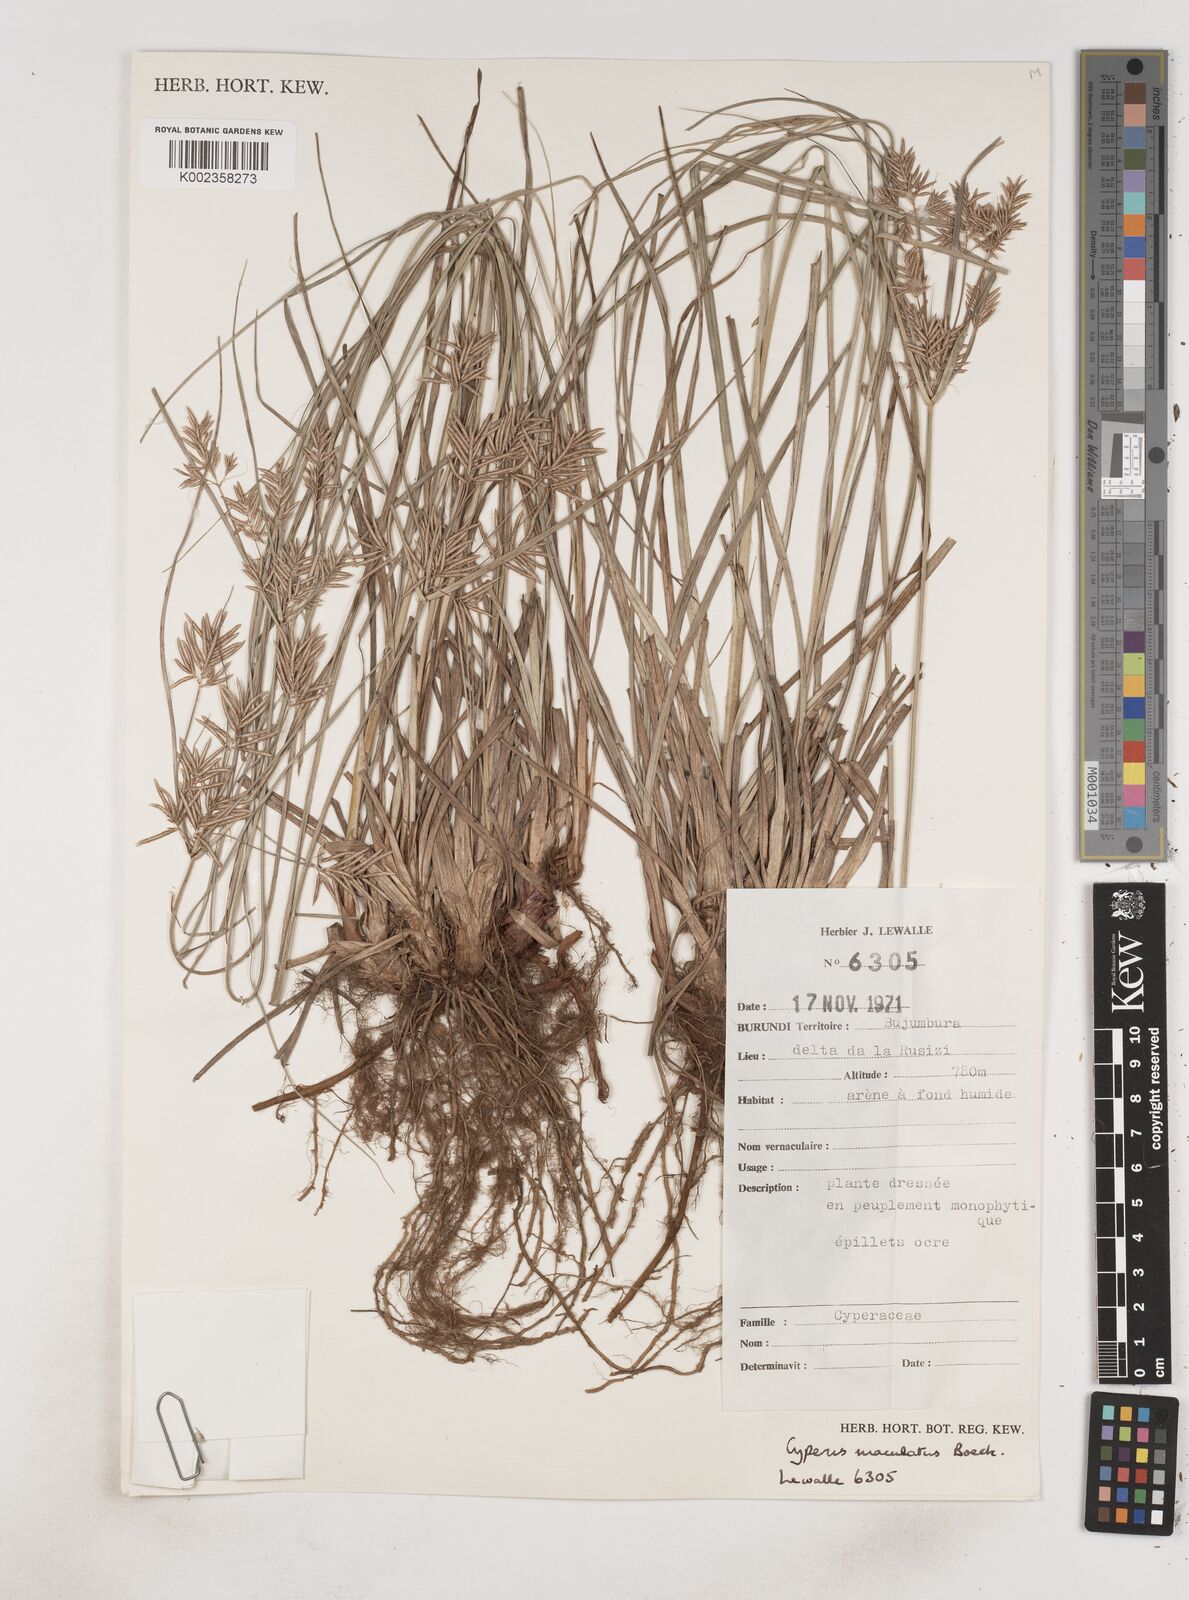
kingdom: Plantae
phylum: Tracheophyta
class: Liliopsida
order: Poales
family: Cyperaceae
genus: Cyperus
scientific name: Cyperus maculatus
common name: Maculated sedge
